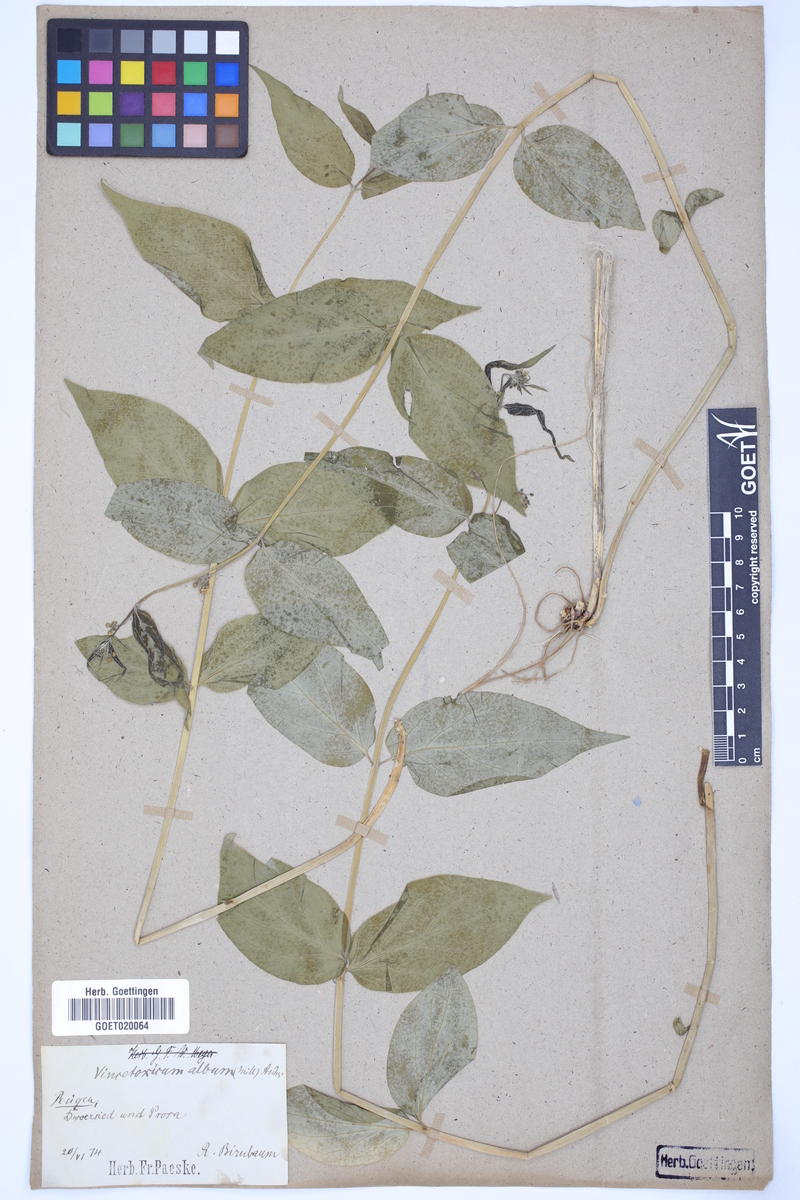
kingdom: Plantae
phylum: Tracheophyta
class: Magnoliopsida
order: Gentianales
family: Apocynaceae
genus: Vincetoxicum
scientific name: Vincetoxicum hirundinaria
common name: White swallowwort
